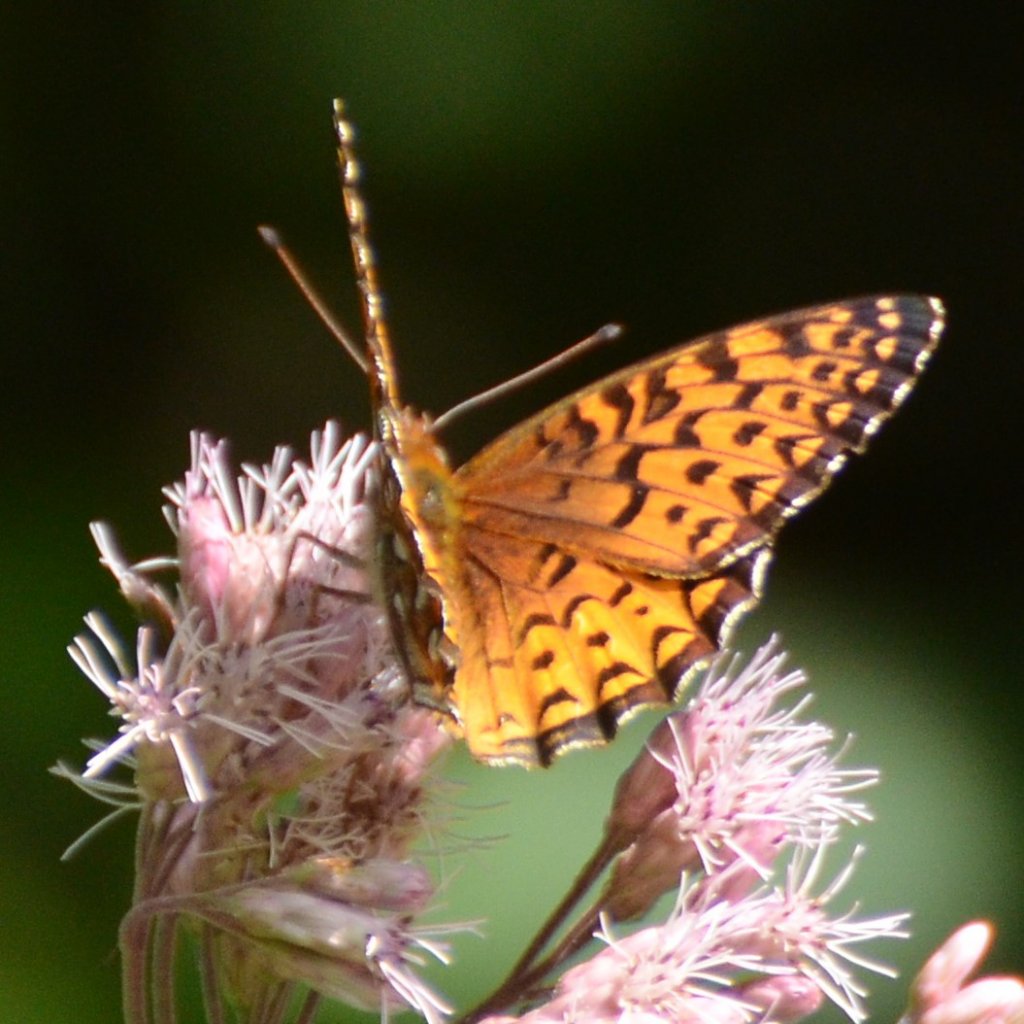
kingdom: Animalia
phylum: Arthropoda
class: Insecta
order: Lepidoptera
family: Nymphalidae
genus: Speyeria
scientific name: Speyeria aphrodite
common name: Aphrodite Fritillary
